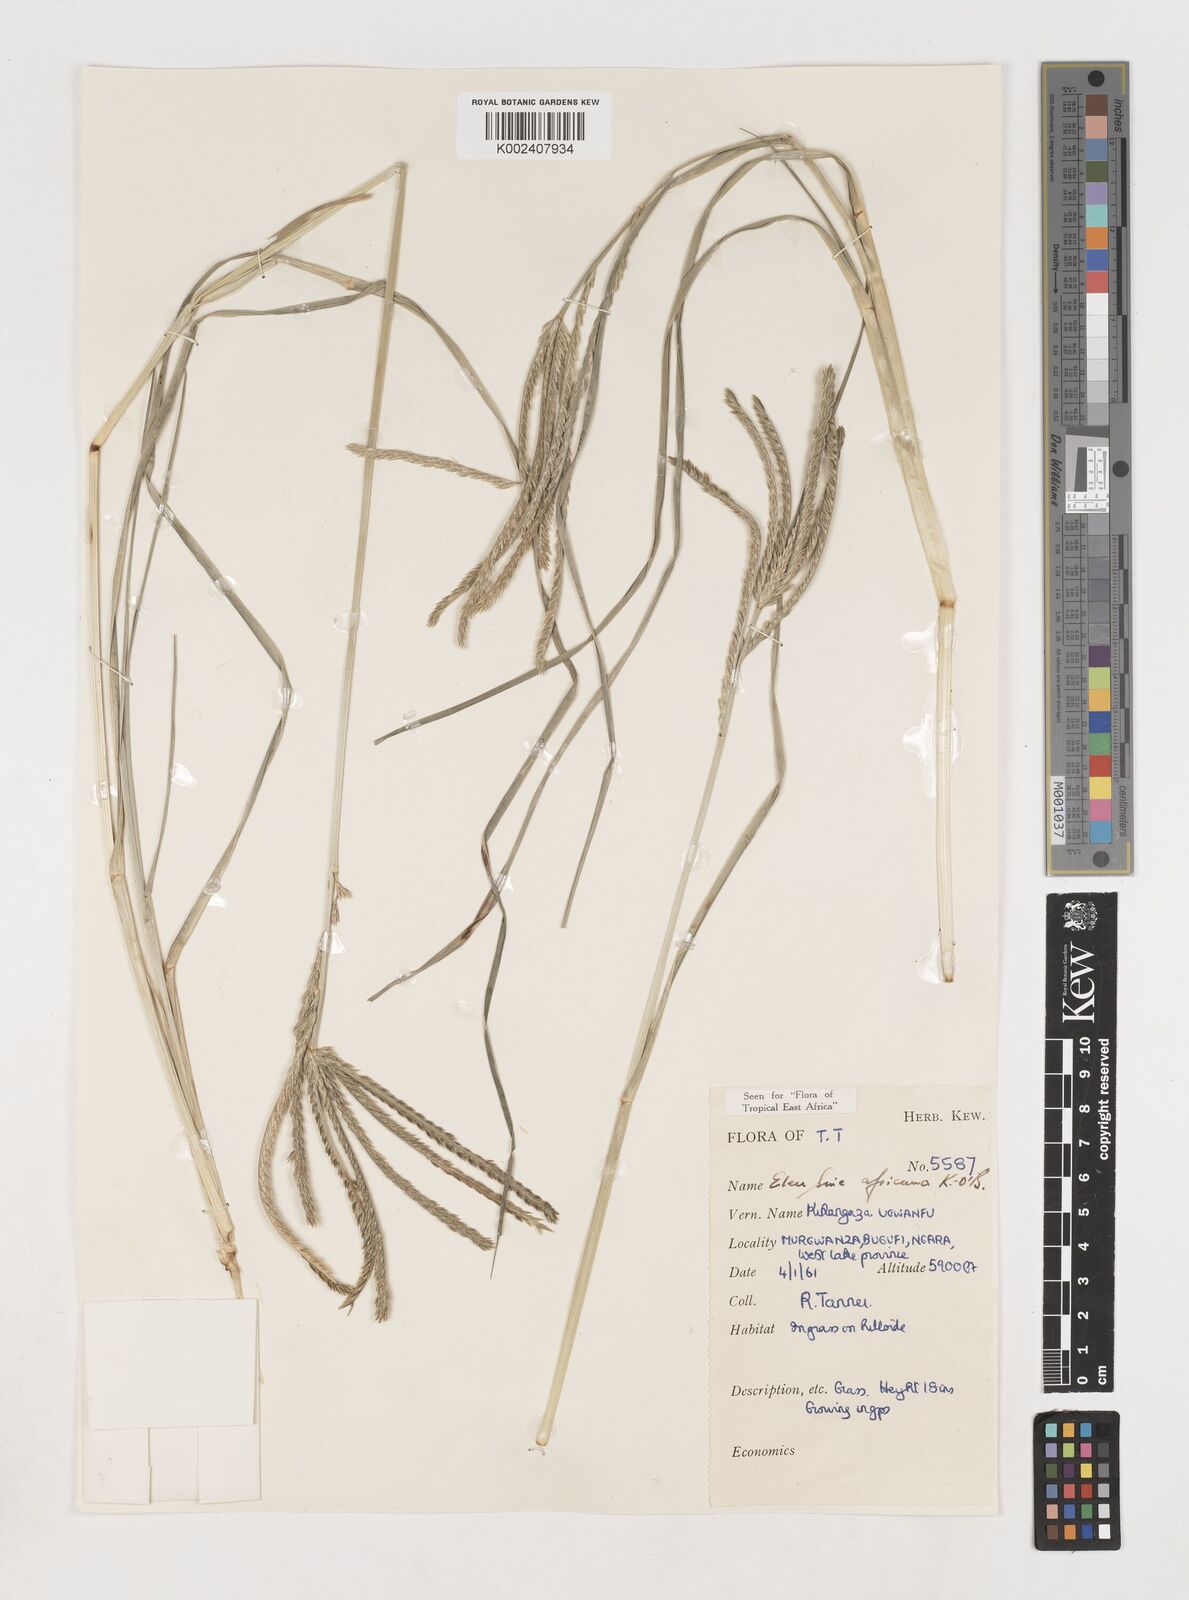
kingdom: Plantae
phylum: Tracheophyta
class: Liliopsida
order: Poales
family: Poaceae
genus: Eleusine
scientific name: Eleusine africana
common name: Wild african finger millet
